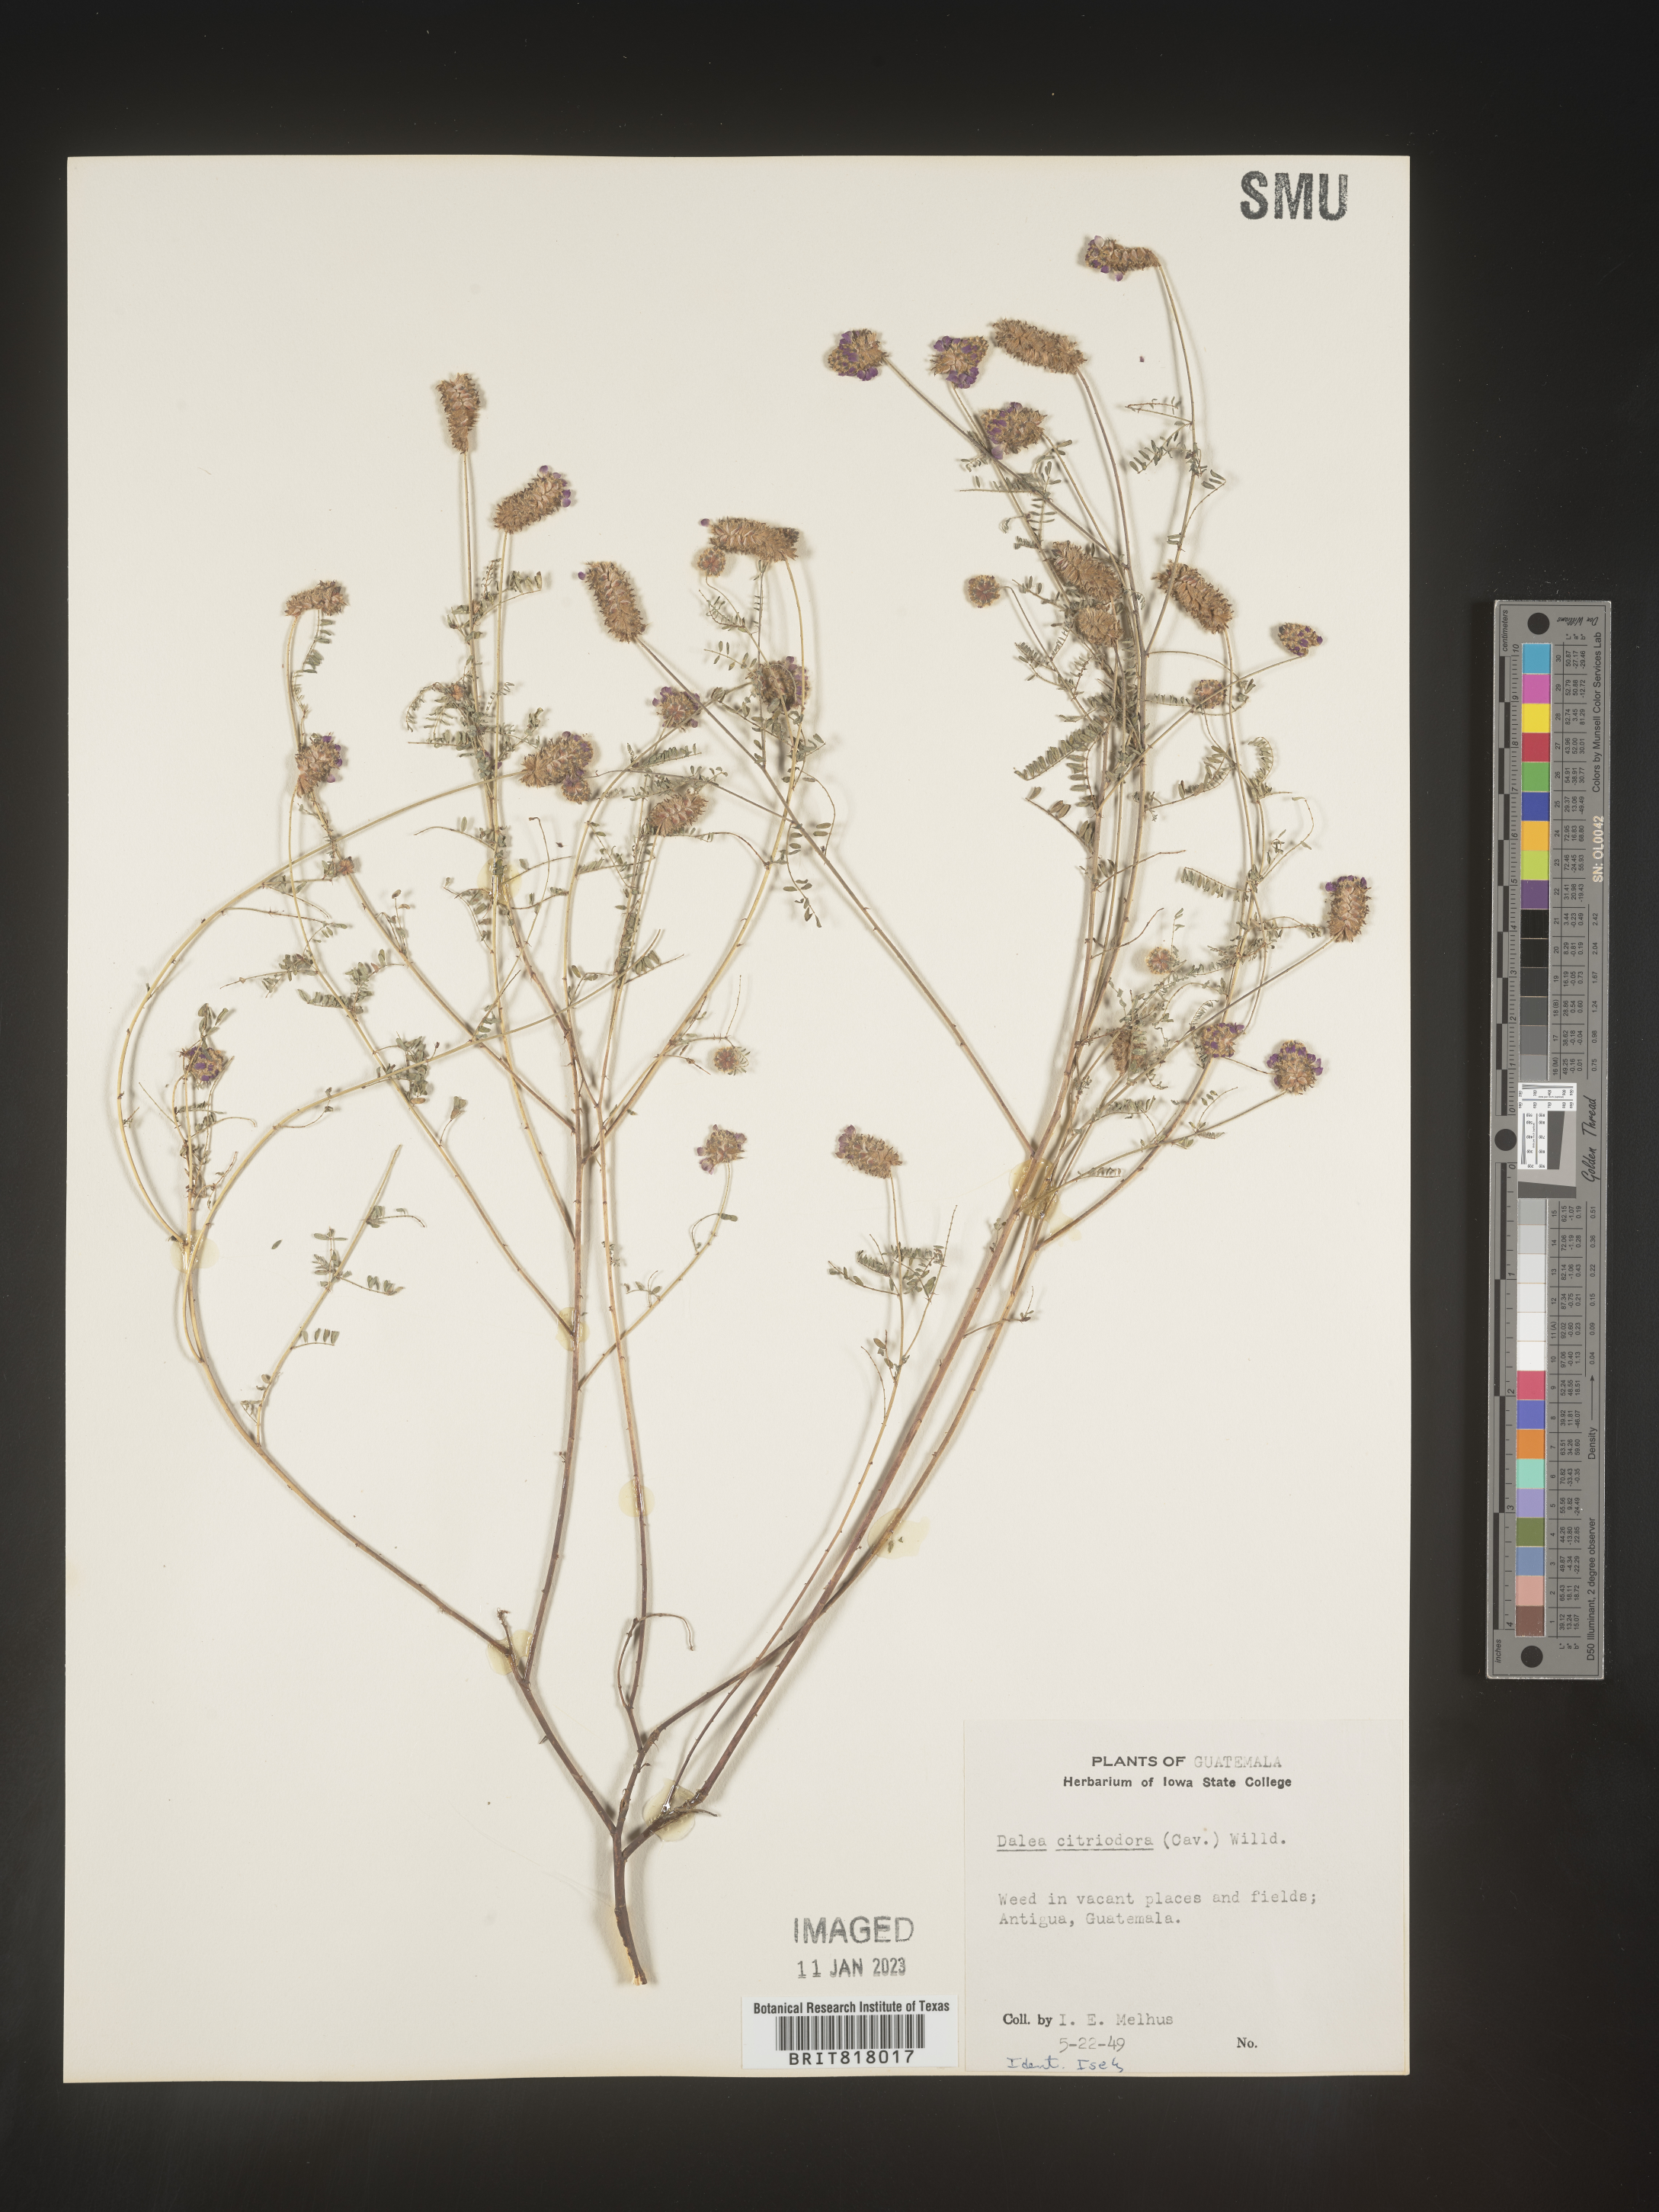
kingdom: Plantae
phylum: Tracheophyta
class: Magnoliopsida
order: Fabales
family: Fabaceae
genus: Dalea
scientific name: Dalea
